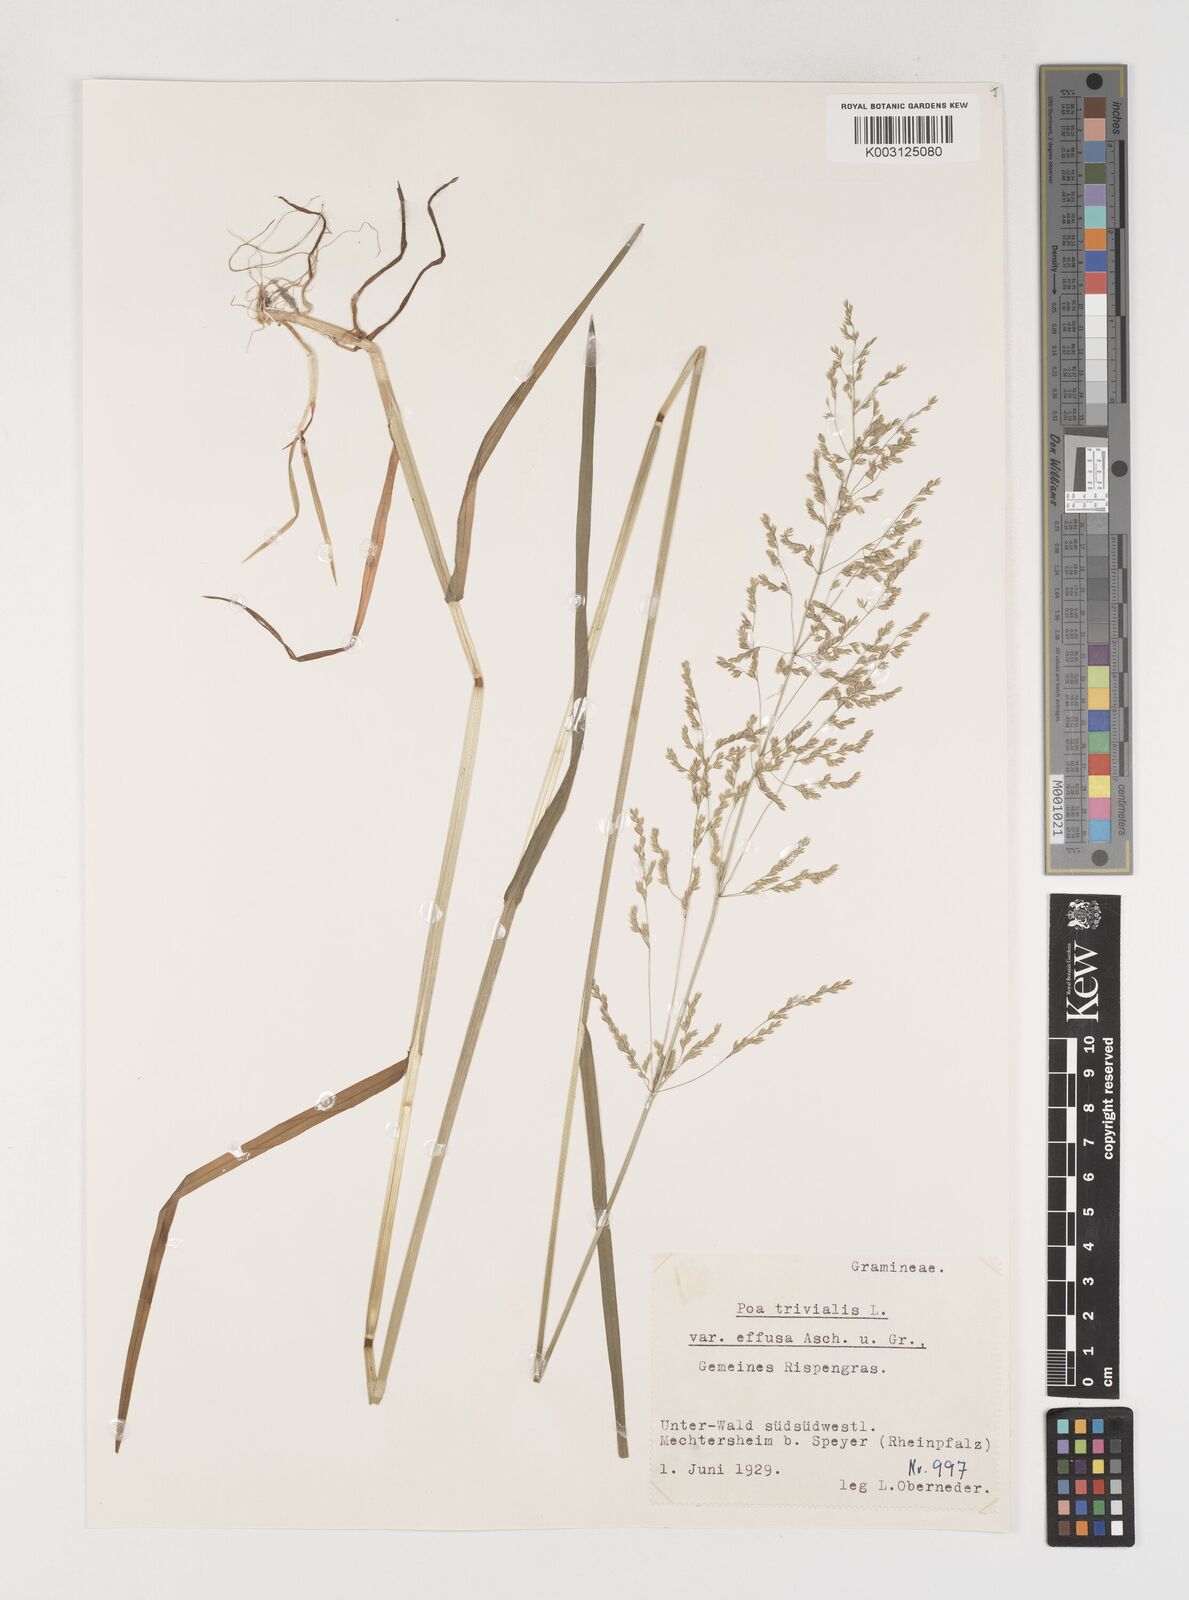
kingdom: Plantae
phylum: Tracheophyta
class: Liliopsida
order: Poales
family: Poaceae
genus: Poa
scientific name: Poa trivialis
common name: Rough bluegrass
